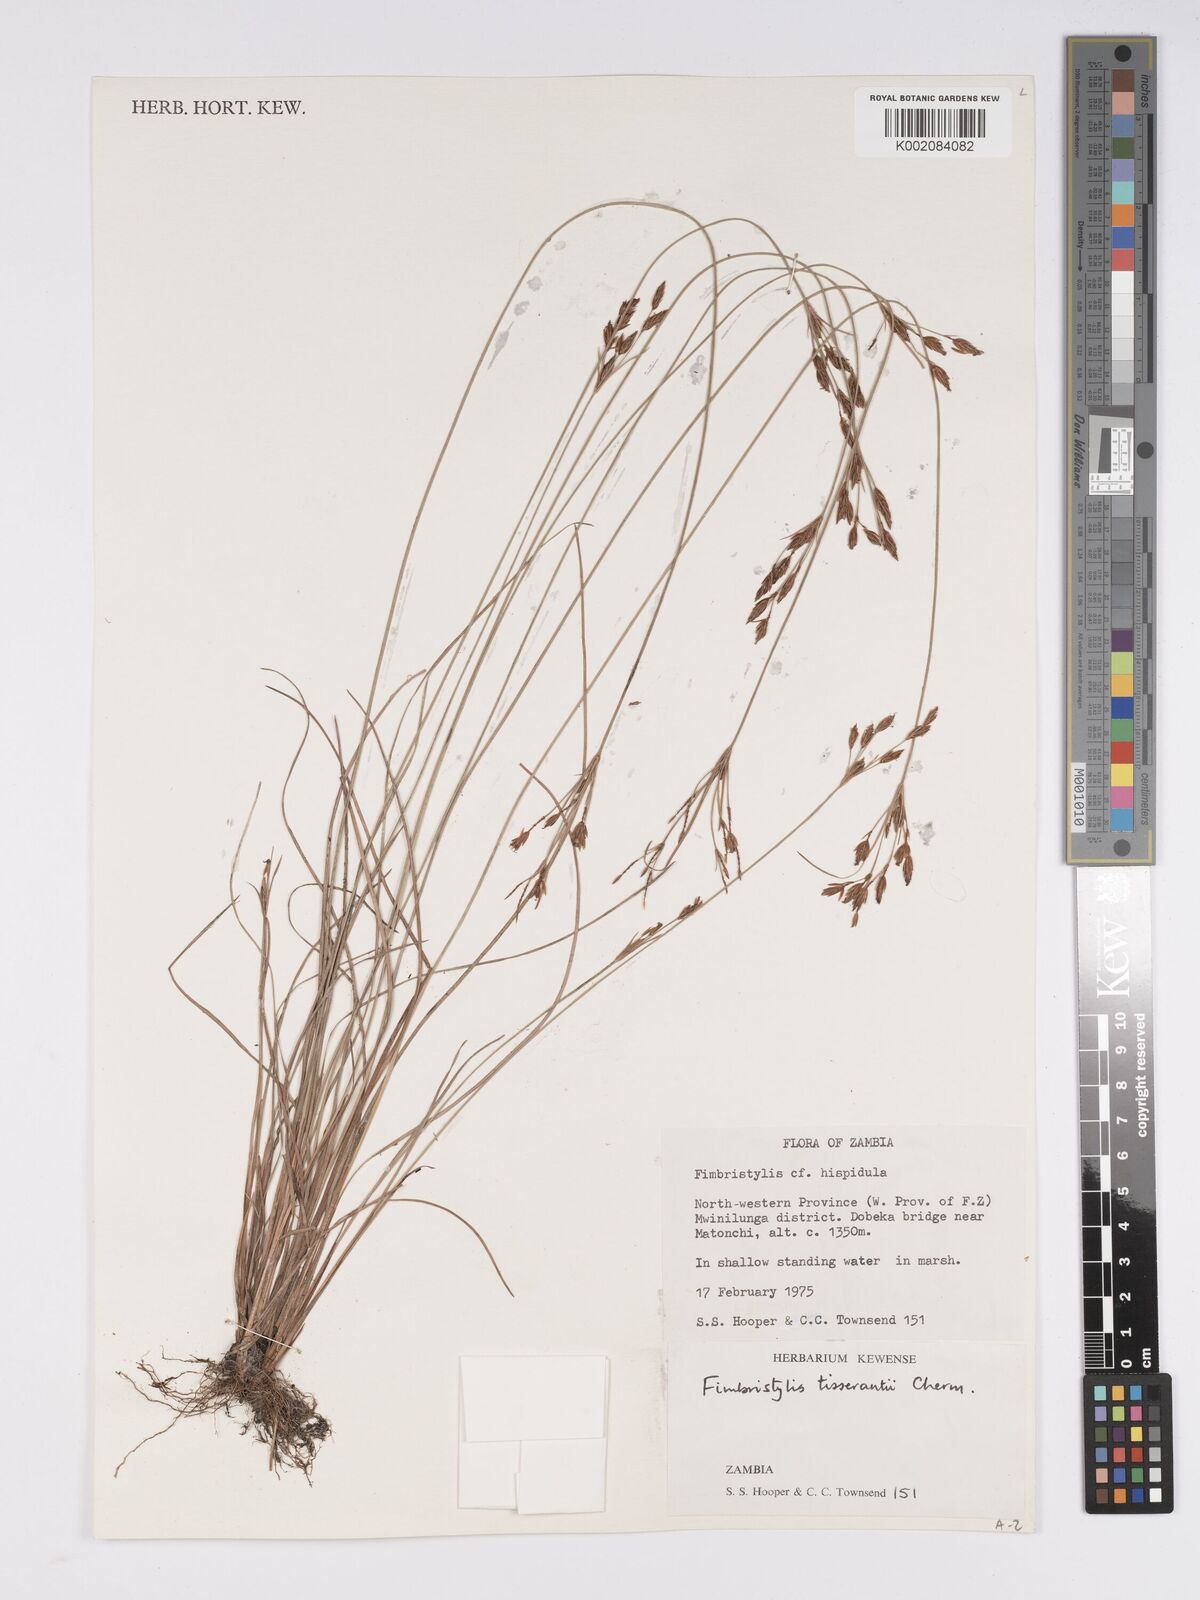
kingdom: Plantae
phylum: Tracheophyta
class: Liliopsida
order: Poales
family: Cyperaceae
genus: Bulbostylis
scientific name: Bulbostylis viridecarinata
